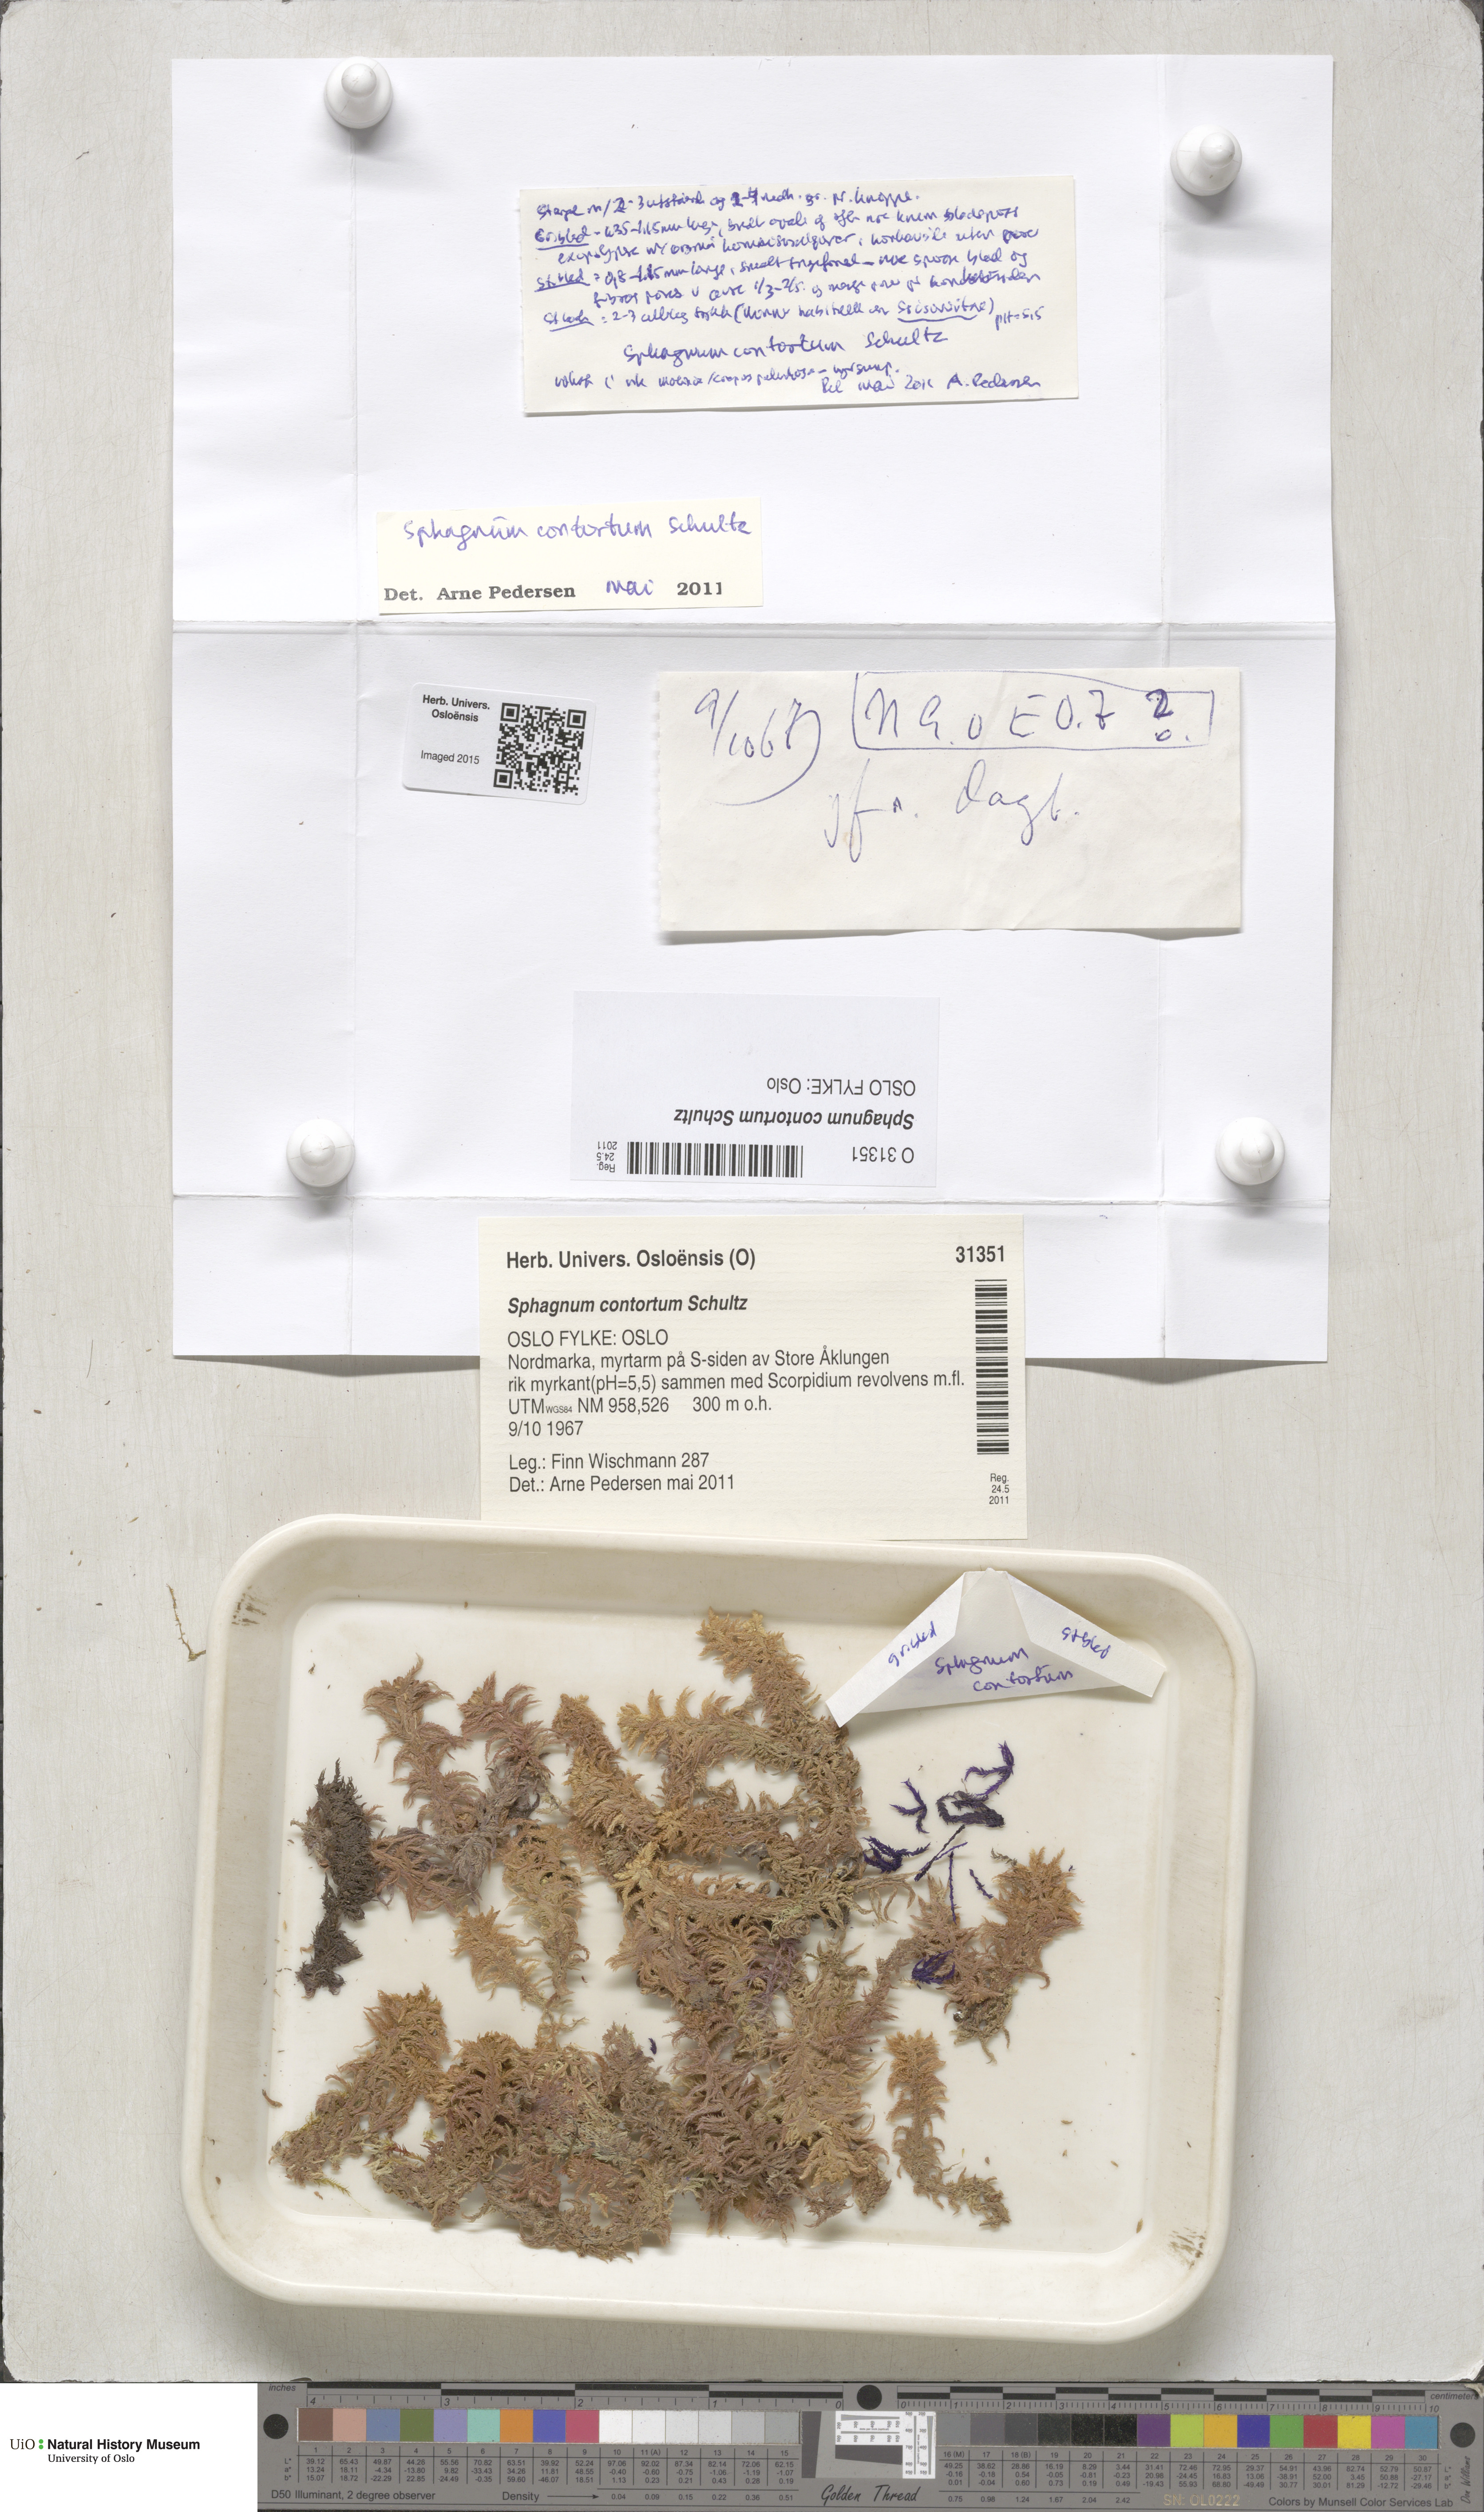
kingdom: Plantae
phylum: Bryophyta
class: Sphagnopsida
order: Sphagnales
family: Sphagnaceae
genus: Sphagnum
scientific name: Sphagnum contortum
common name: Twisted peat moss
